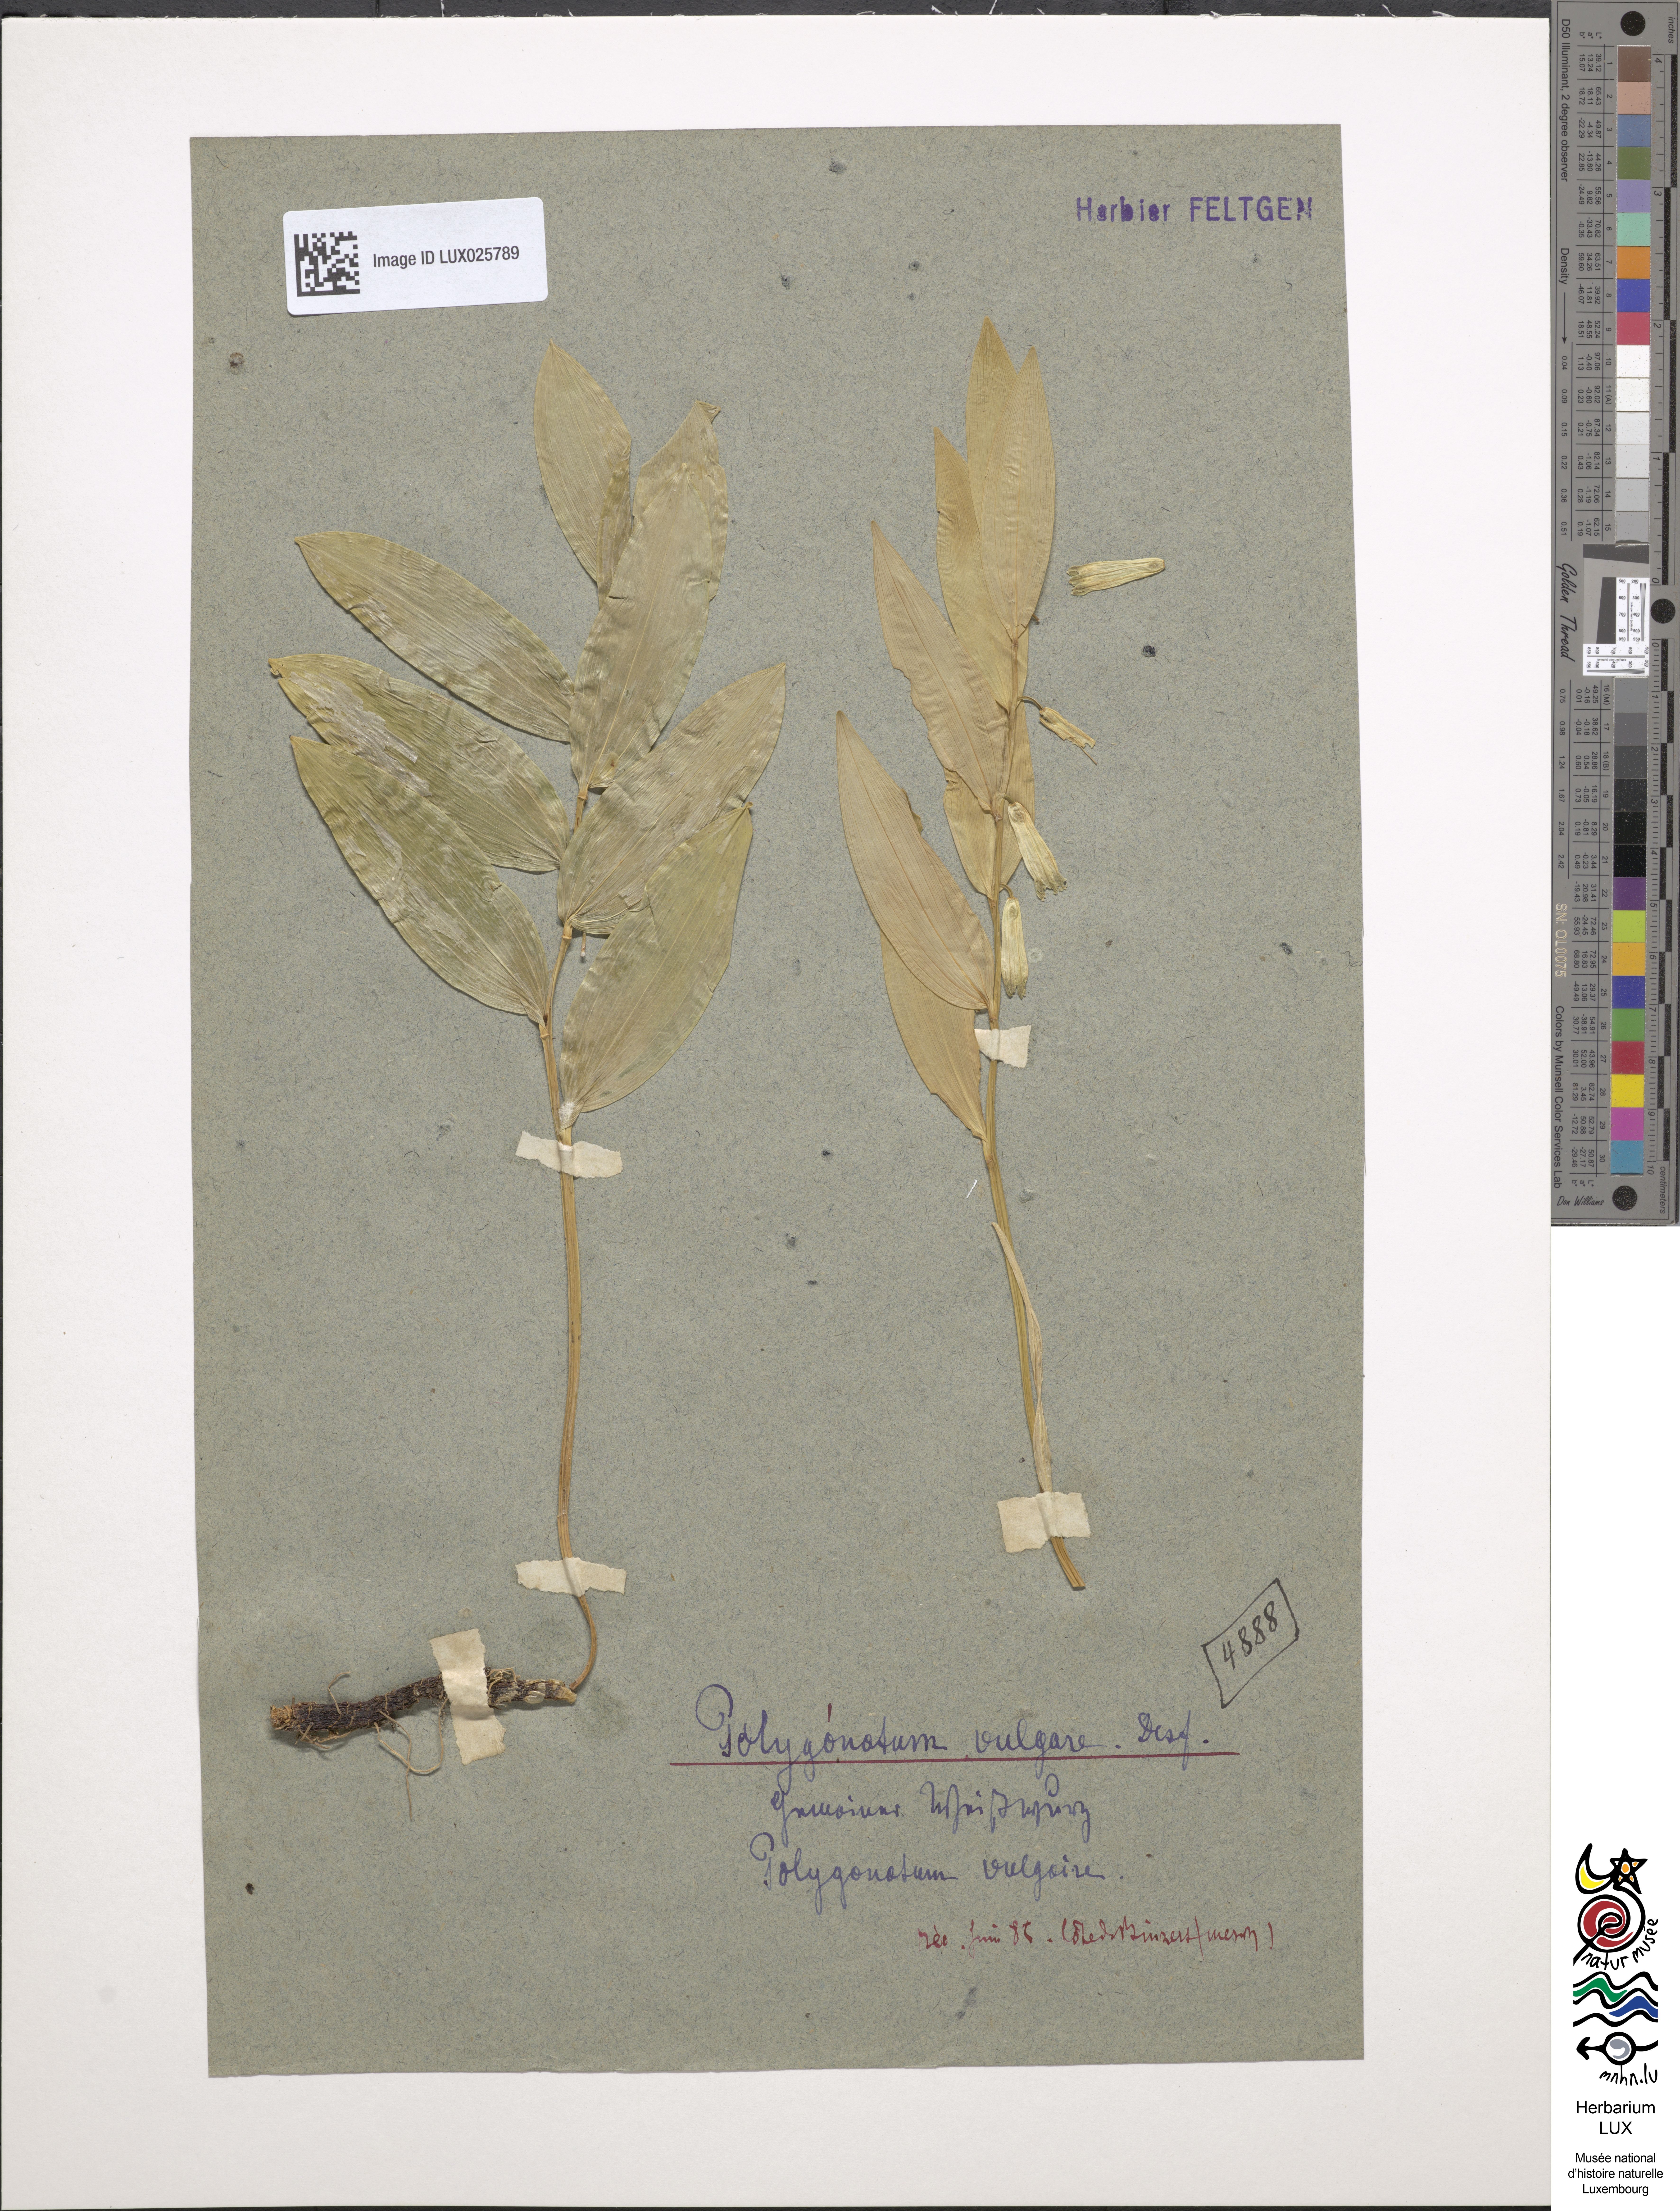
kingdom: Plantae
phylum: Tracheophyta
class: Liliopsida
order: Asparagales
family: Asparagaceae
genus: Polygonatum
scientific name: Polygonatum odoratum
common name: Angular solomon's-seal
